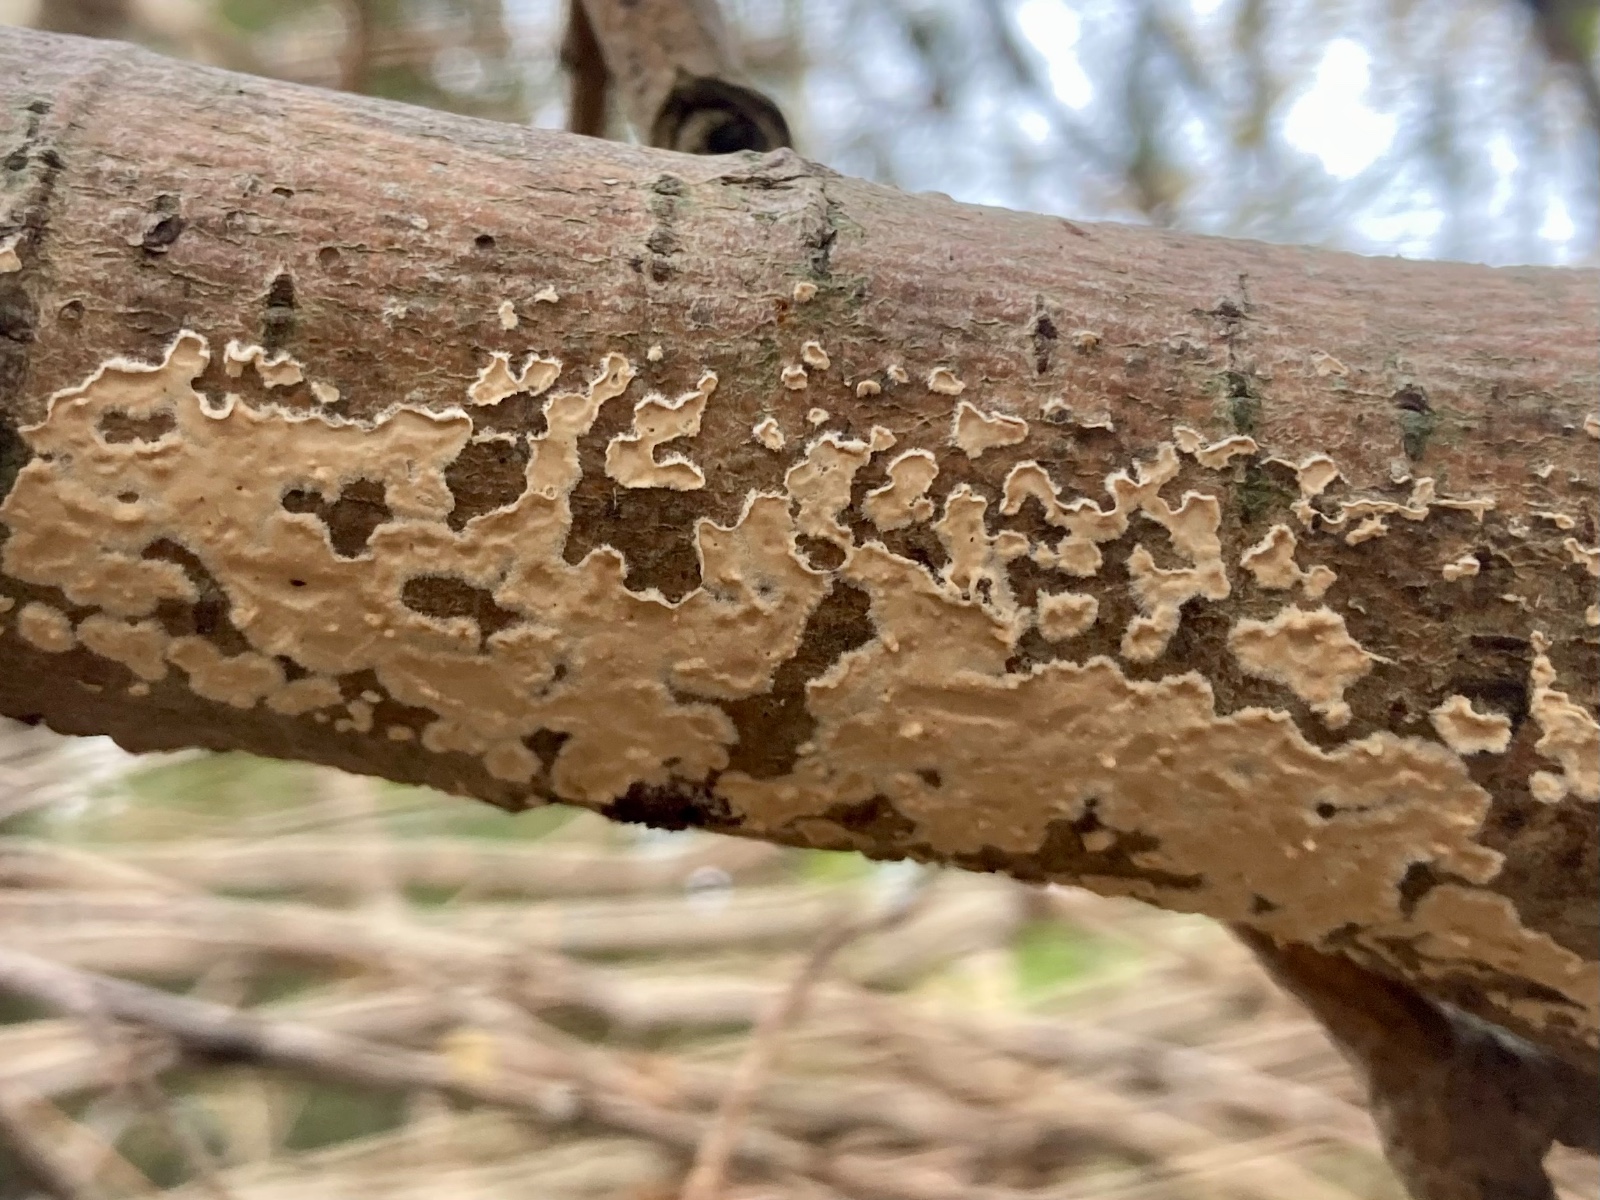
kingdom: Fungi
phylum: Basidiomycota
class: Agaricomycetes
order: Agaricales
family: Physalacriaceae
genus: Cylindrobasidium
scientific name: Cylindrobasidium evolvens
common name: sprækkehinde
